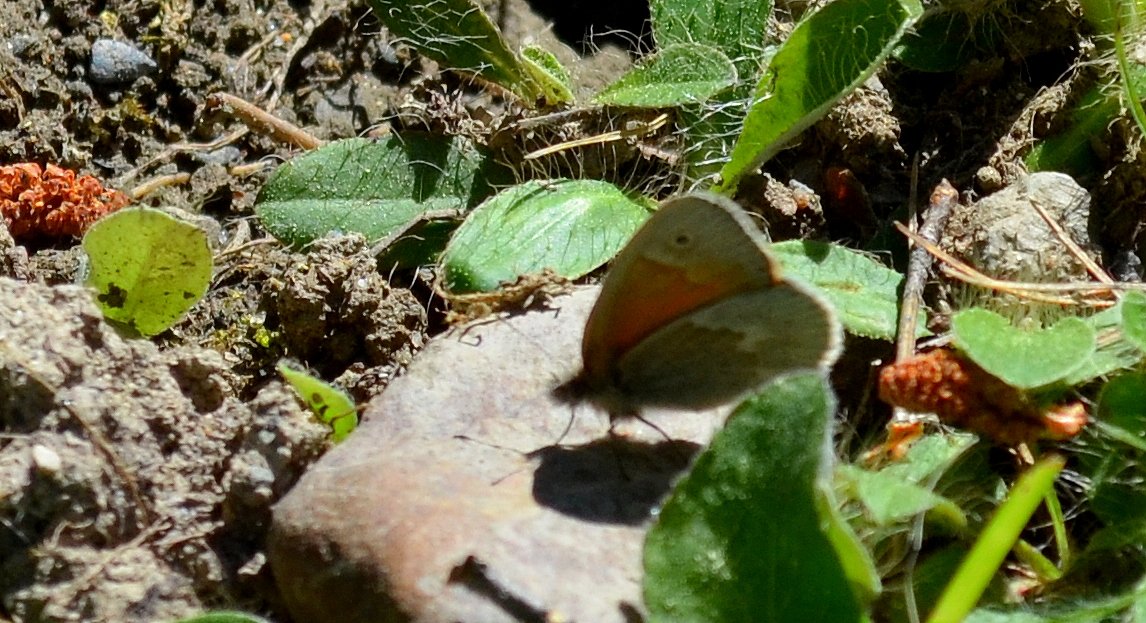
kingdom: Animalia
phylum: Arthropoda
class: Insecta
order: Lepidoptera
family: Nymphalidae
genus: Coenonympha
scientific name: Coenonympha tullia
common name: Large Heath
